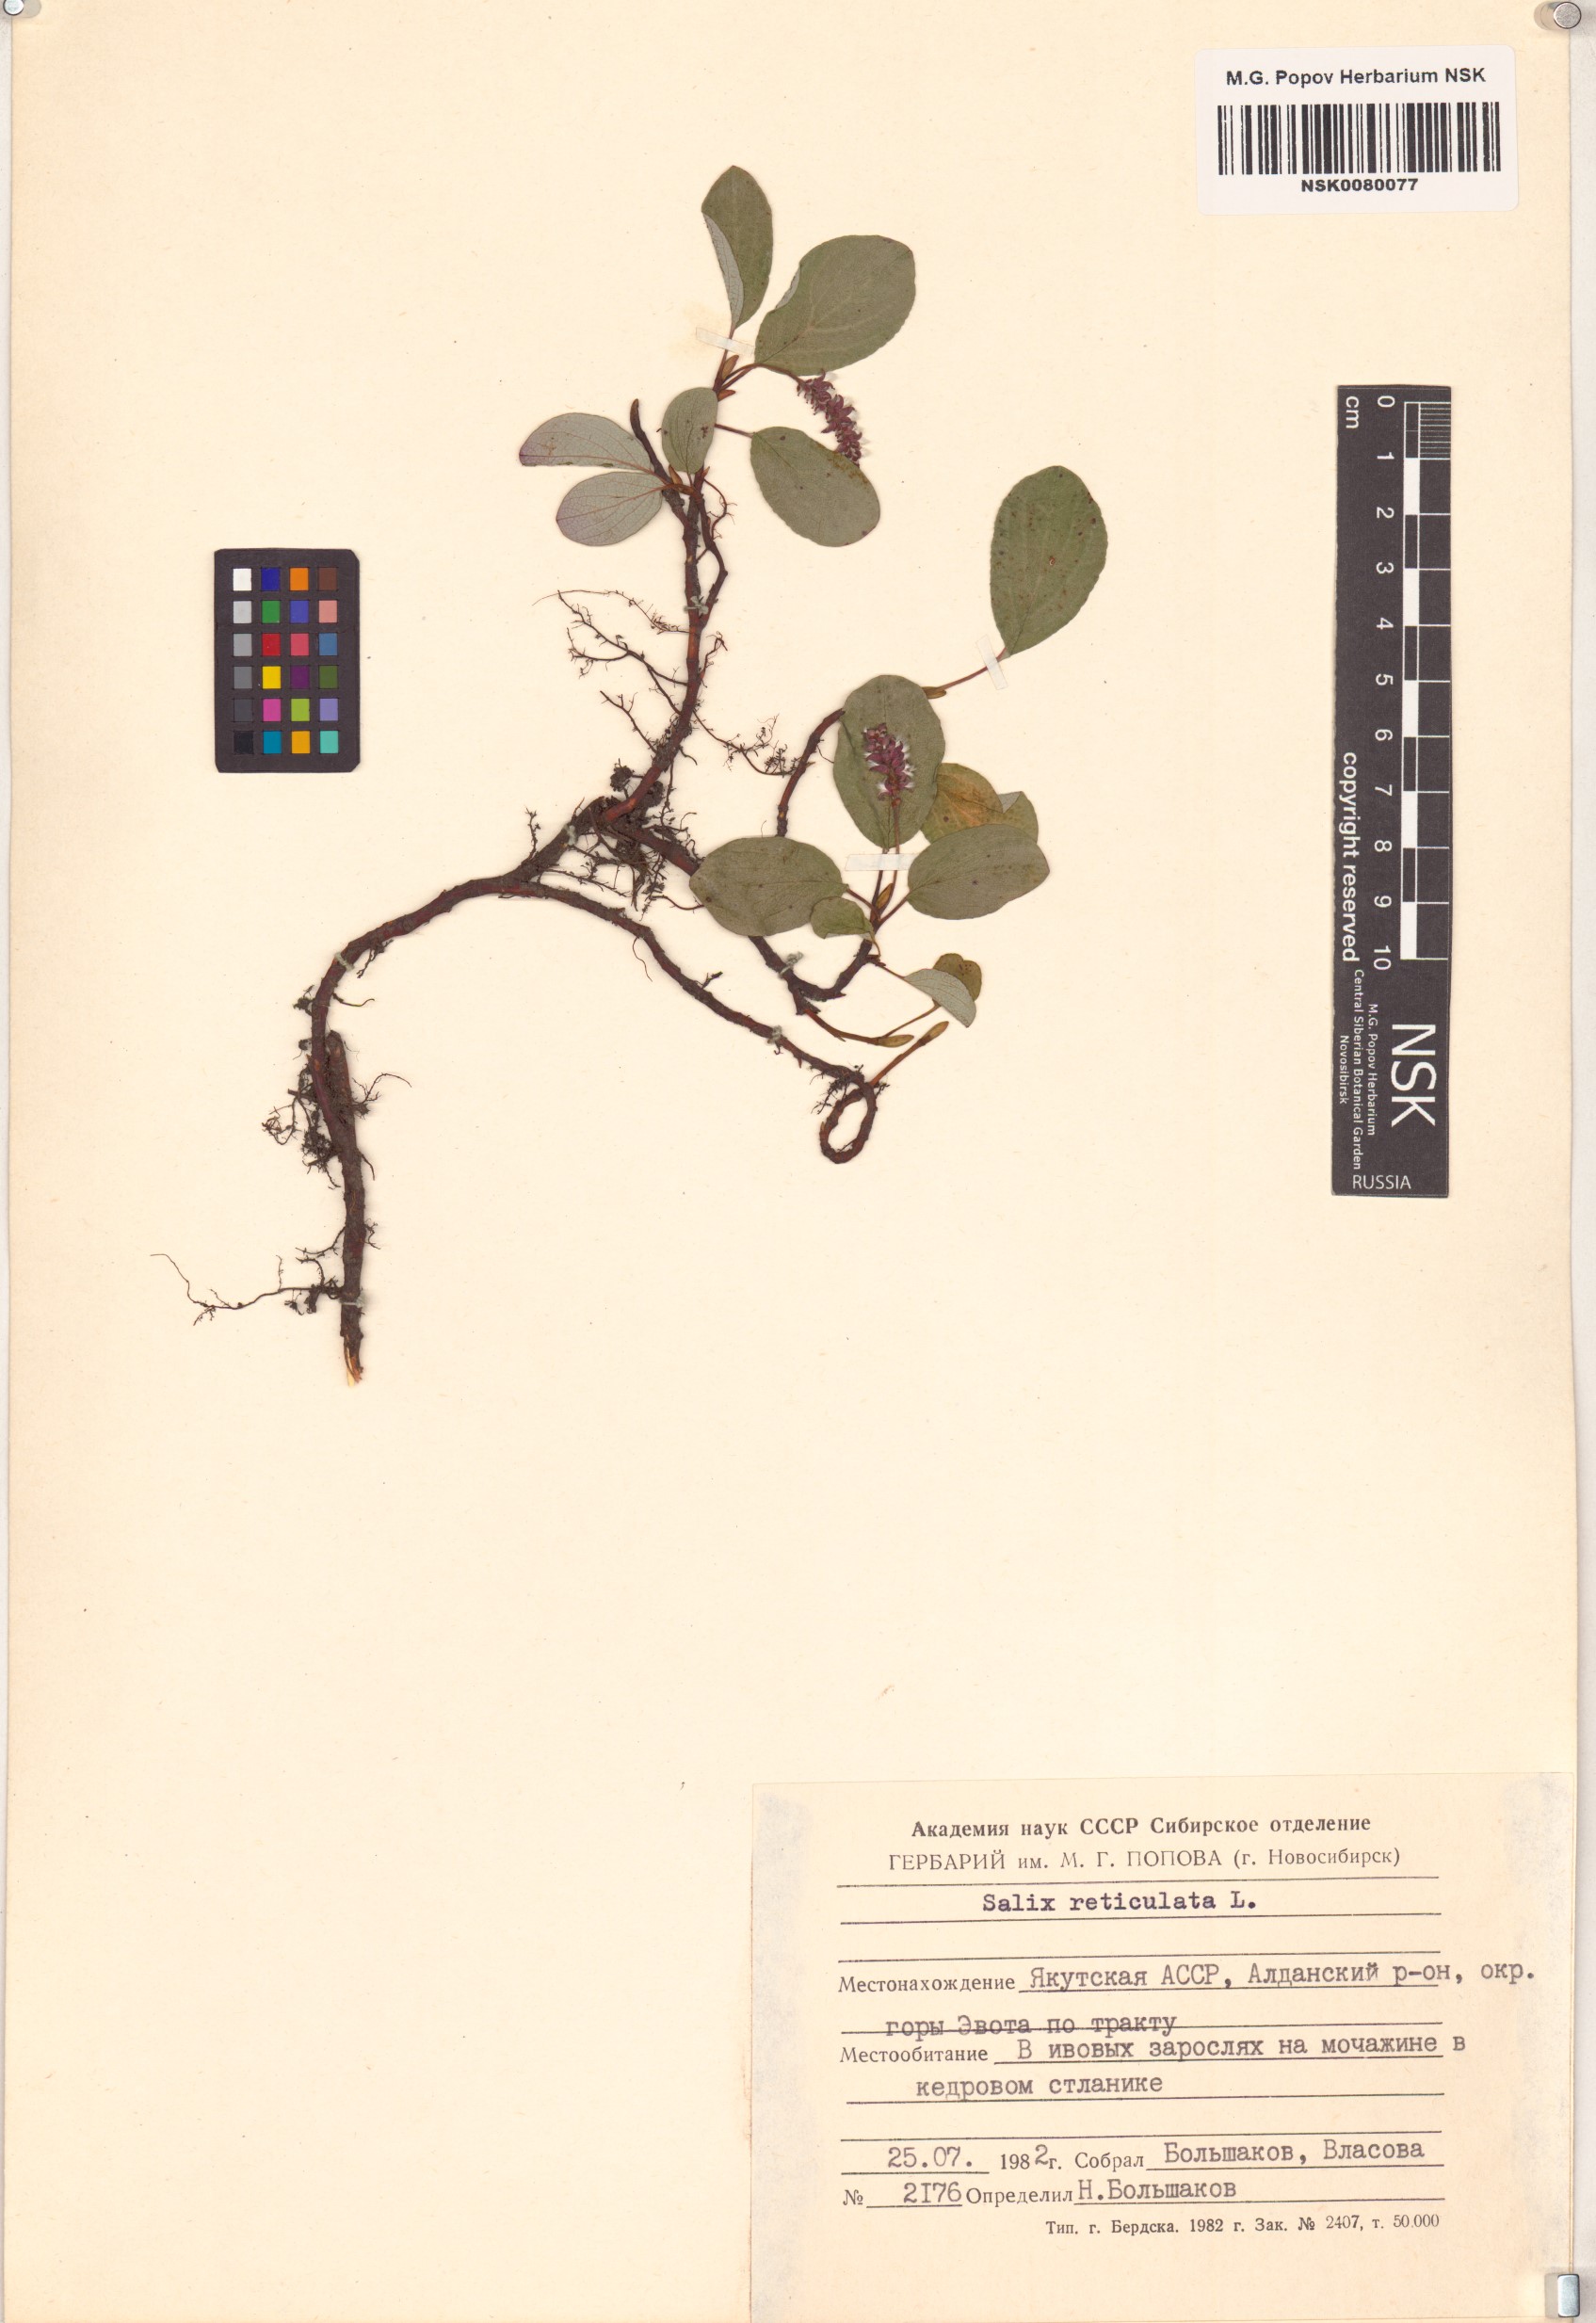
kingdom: Plantae
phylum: Tracheophyta
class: Magnoliopsida
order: Malpighiales
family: Salicaceae
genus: Salix
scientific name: Salix reticulata
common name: Net-leaved willow
